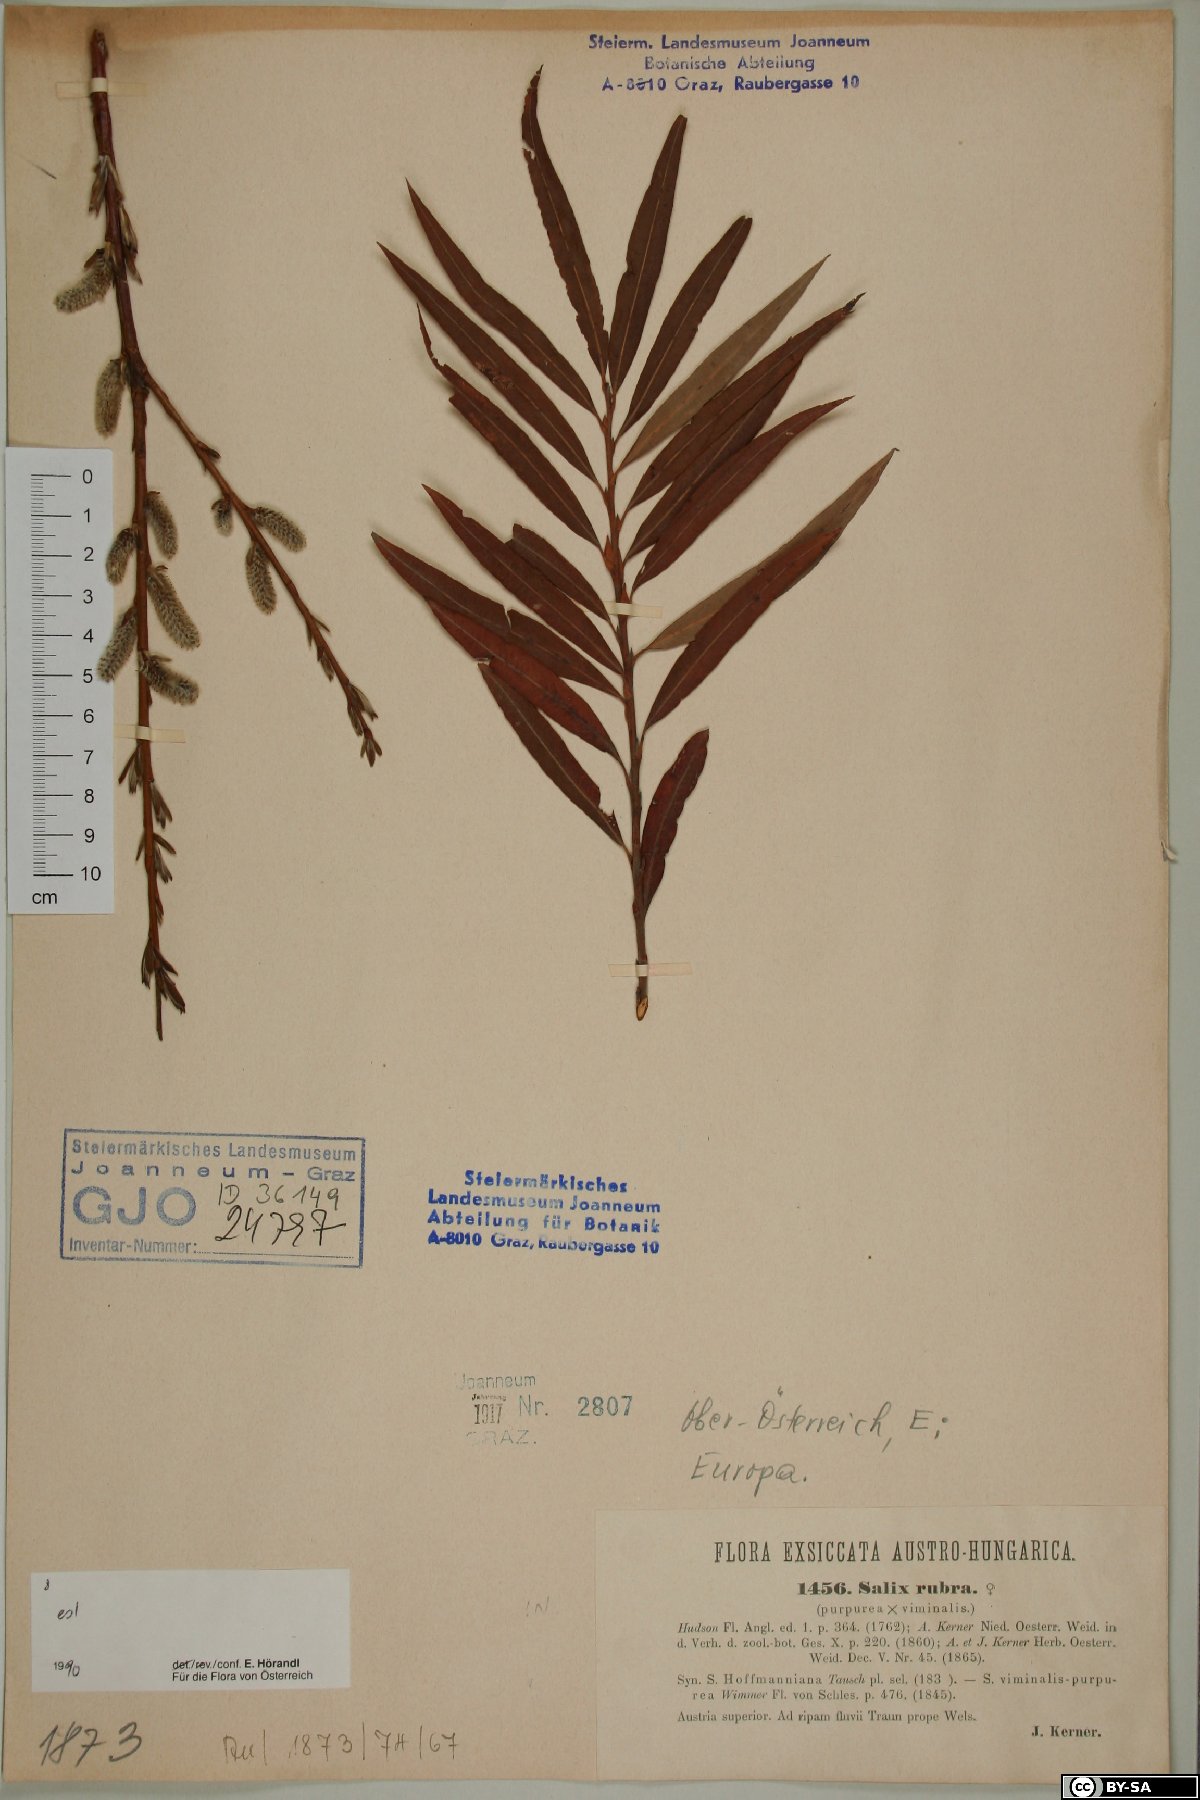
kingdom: Plantae
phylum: Tracheophyta
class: Magnoliopsida
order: Malpighiales
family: Salicaceae
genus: Salix
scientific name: Salix rubra
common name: Green-leaf willow
